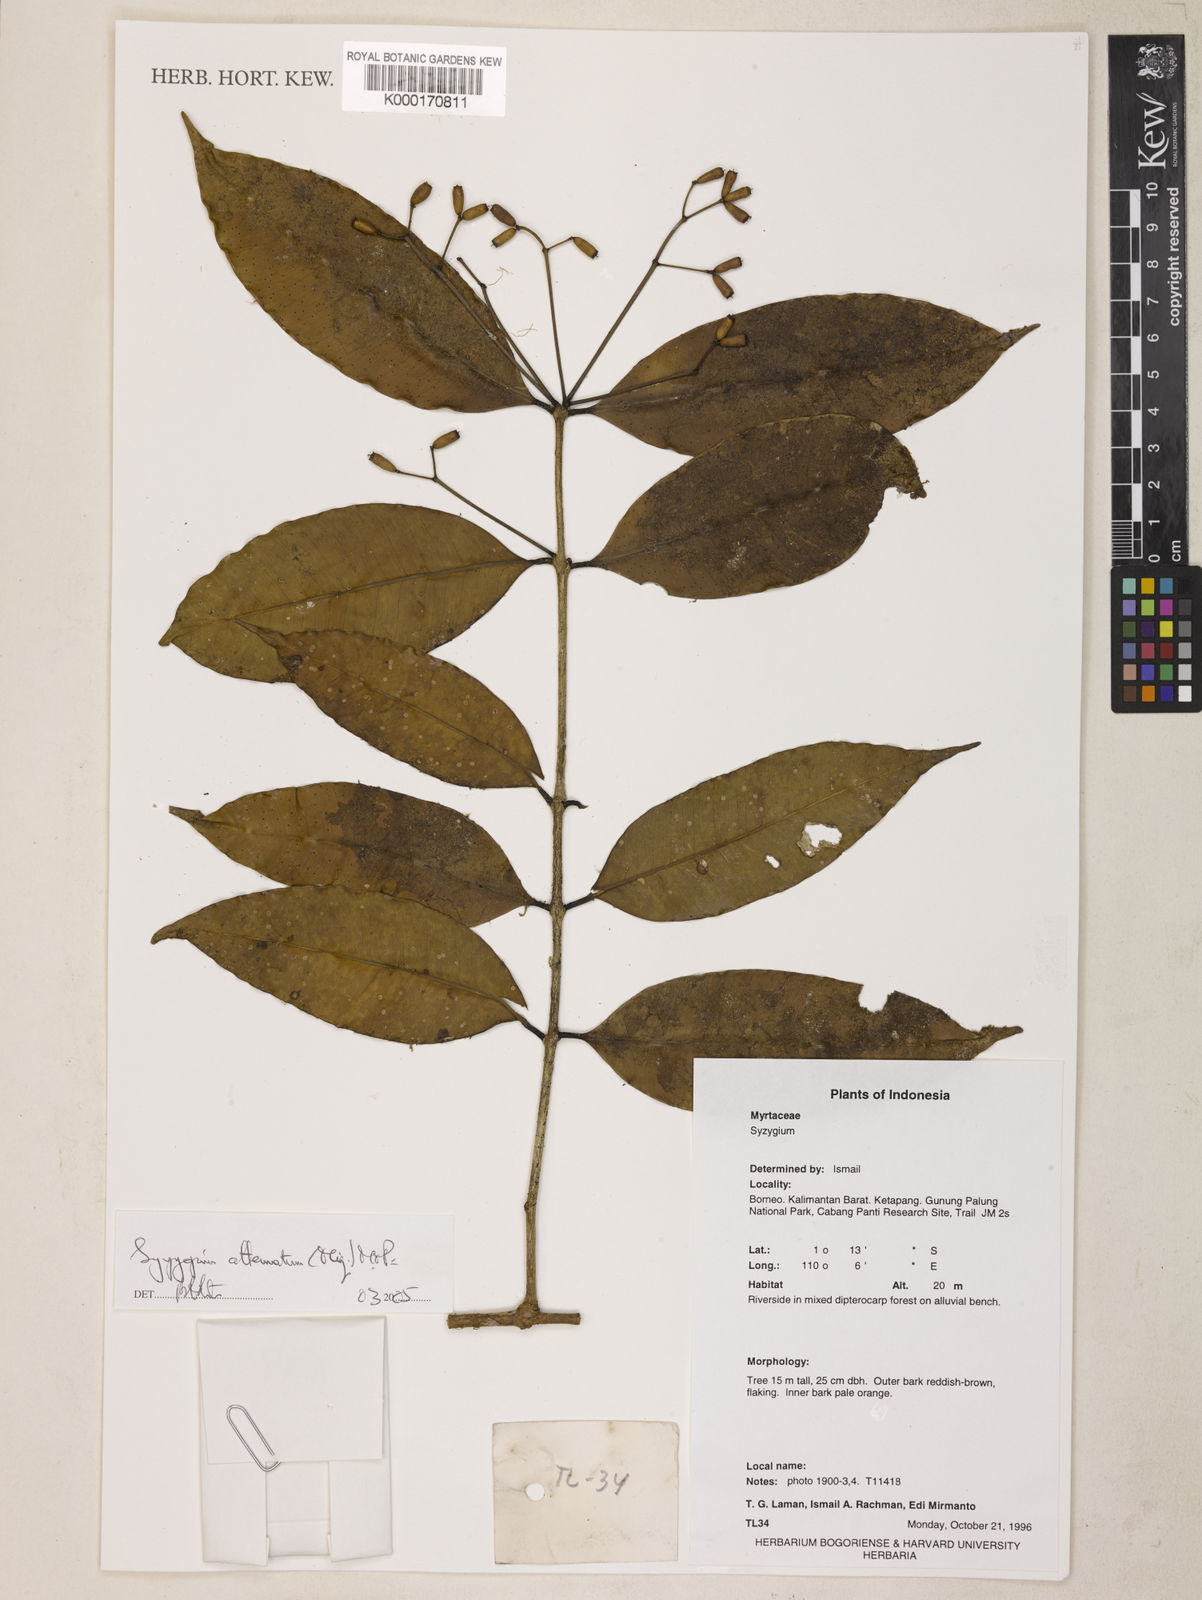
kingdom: Plantae
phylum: Tracheophyta
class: Magnoliopsida
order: Myrtales
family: Myrtaceae
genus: Syzygium
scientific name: Syzygium
